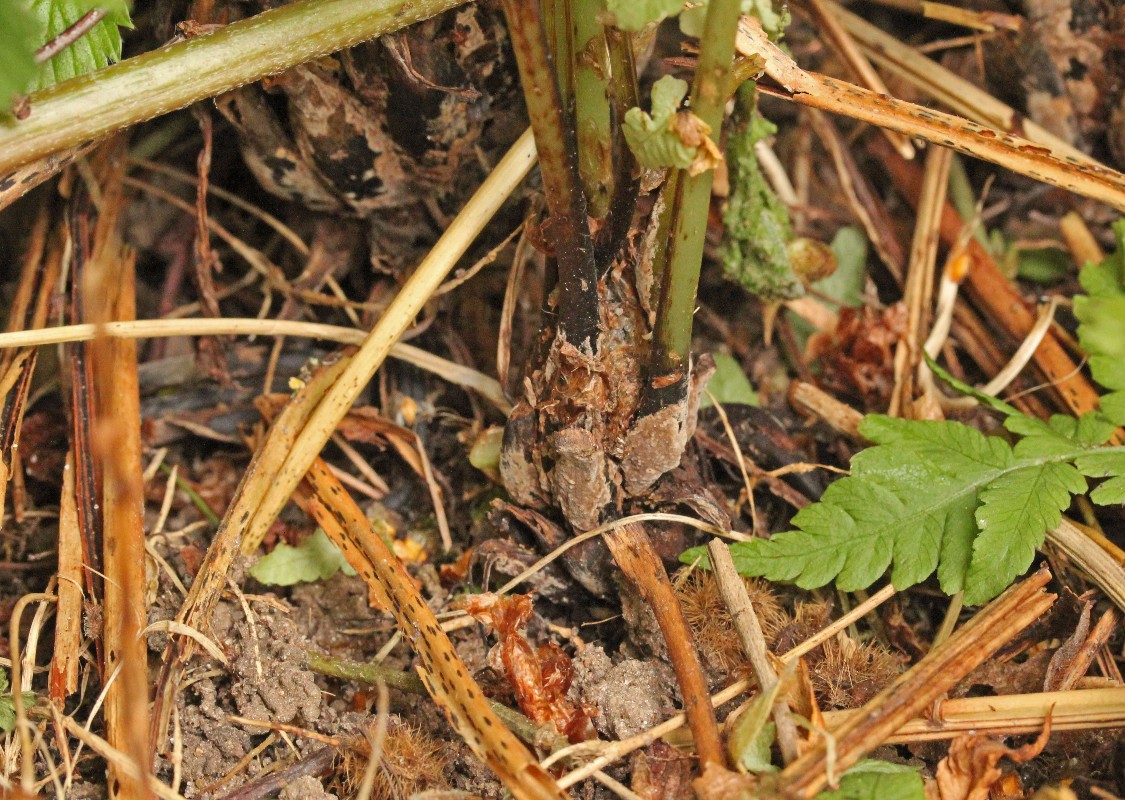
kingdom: Fungi
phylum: Basidiomycota
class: Agaricomycetes
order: Thelephorales
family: Thelephoraceae
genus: Thelephora
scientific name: Thelephora wakefieldiae
